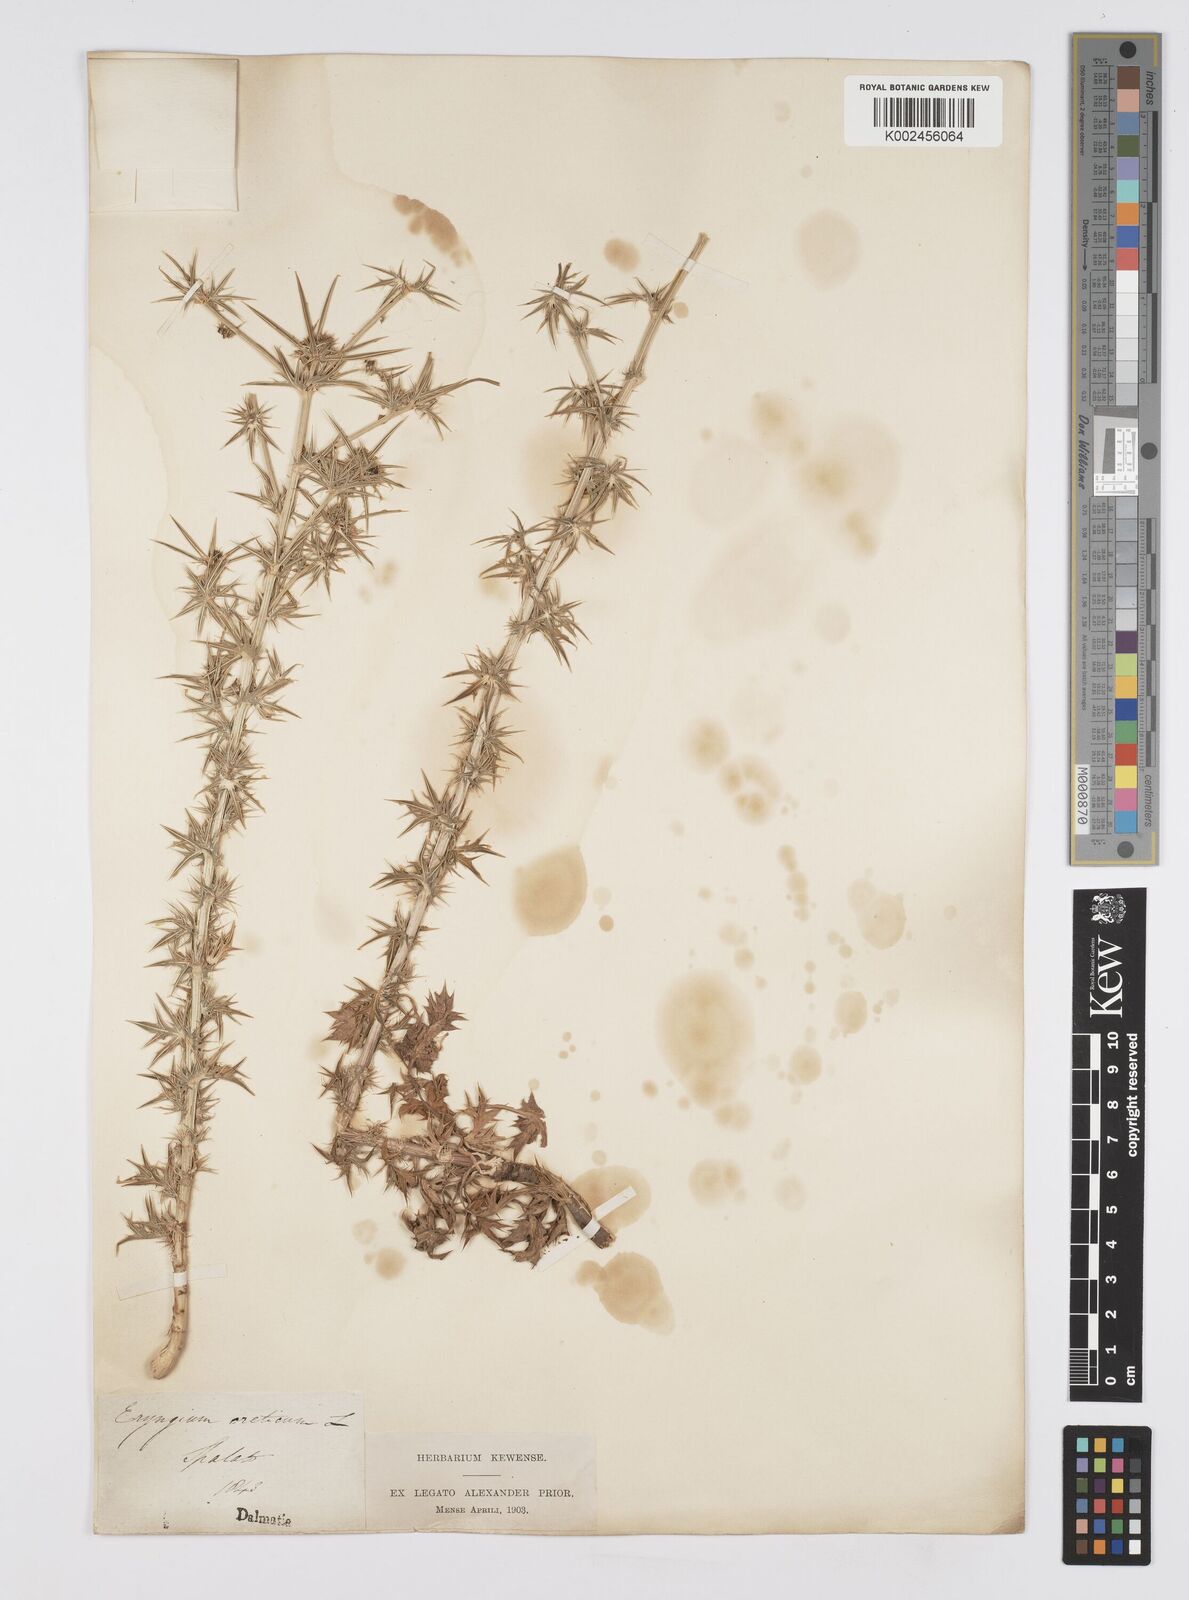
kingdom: Plantae
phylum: Tracheophyta
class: Magnoliopsida
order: Apiales
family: Apiaceae
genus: Eryngium
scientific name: Eryngium creticum
